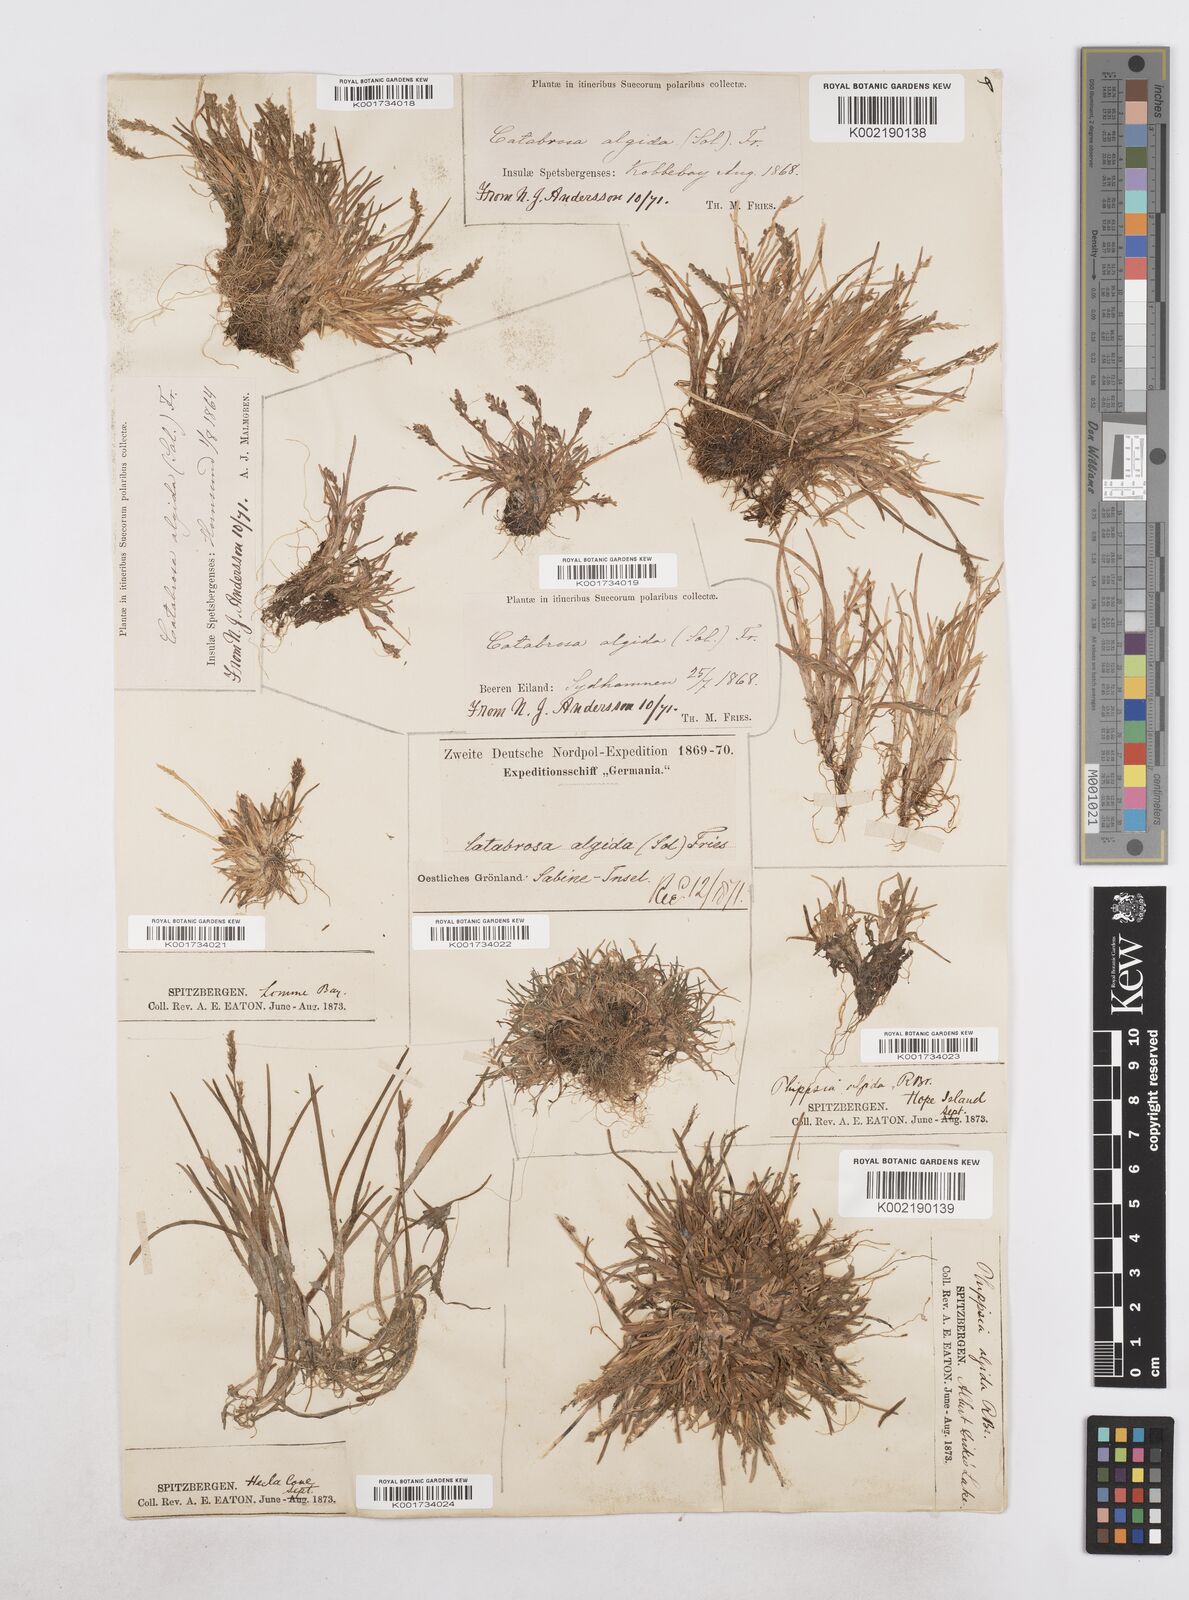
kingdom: Plantae
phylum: Tracheophyta
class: Liliopsida
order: Poales
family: Poaceae
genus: Phippsia
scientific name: Phippsia algida
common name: Ice grass
